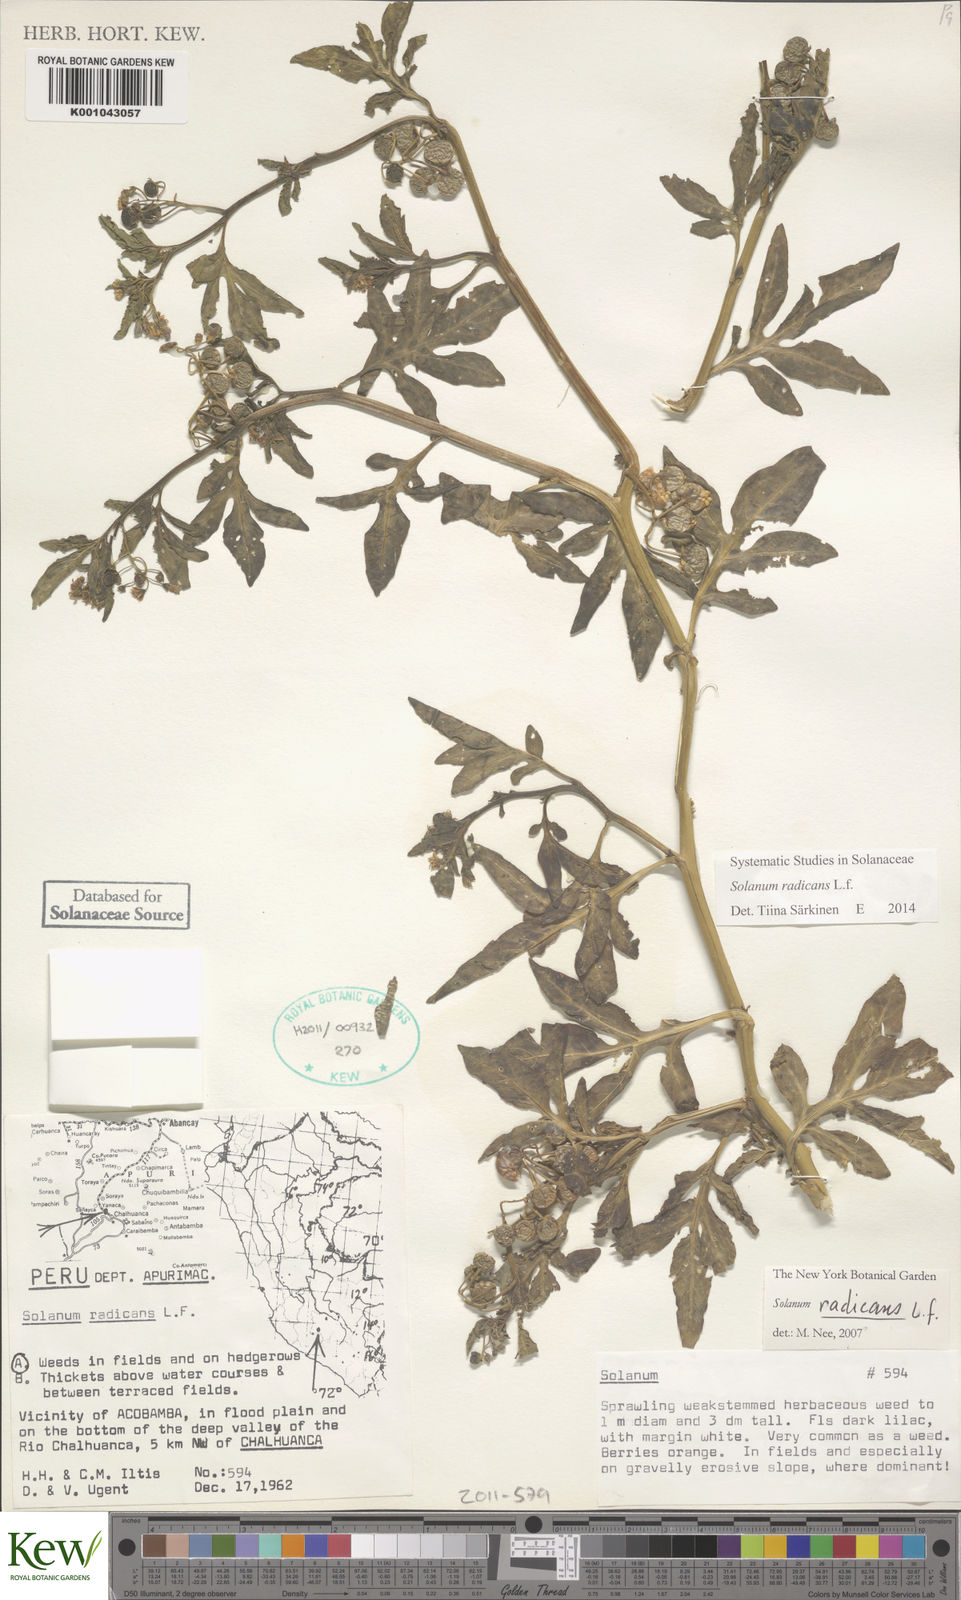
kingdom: Plantae
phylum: Tracheophyta
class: Magnoliopsida
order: Solanales
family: Solanaceae
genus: Solanum
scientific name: Solanum radicans
